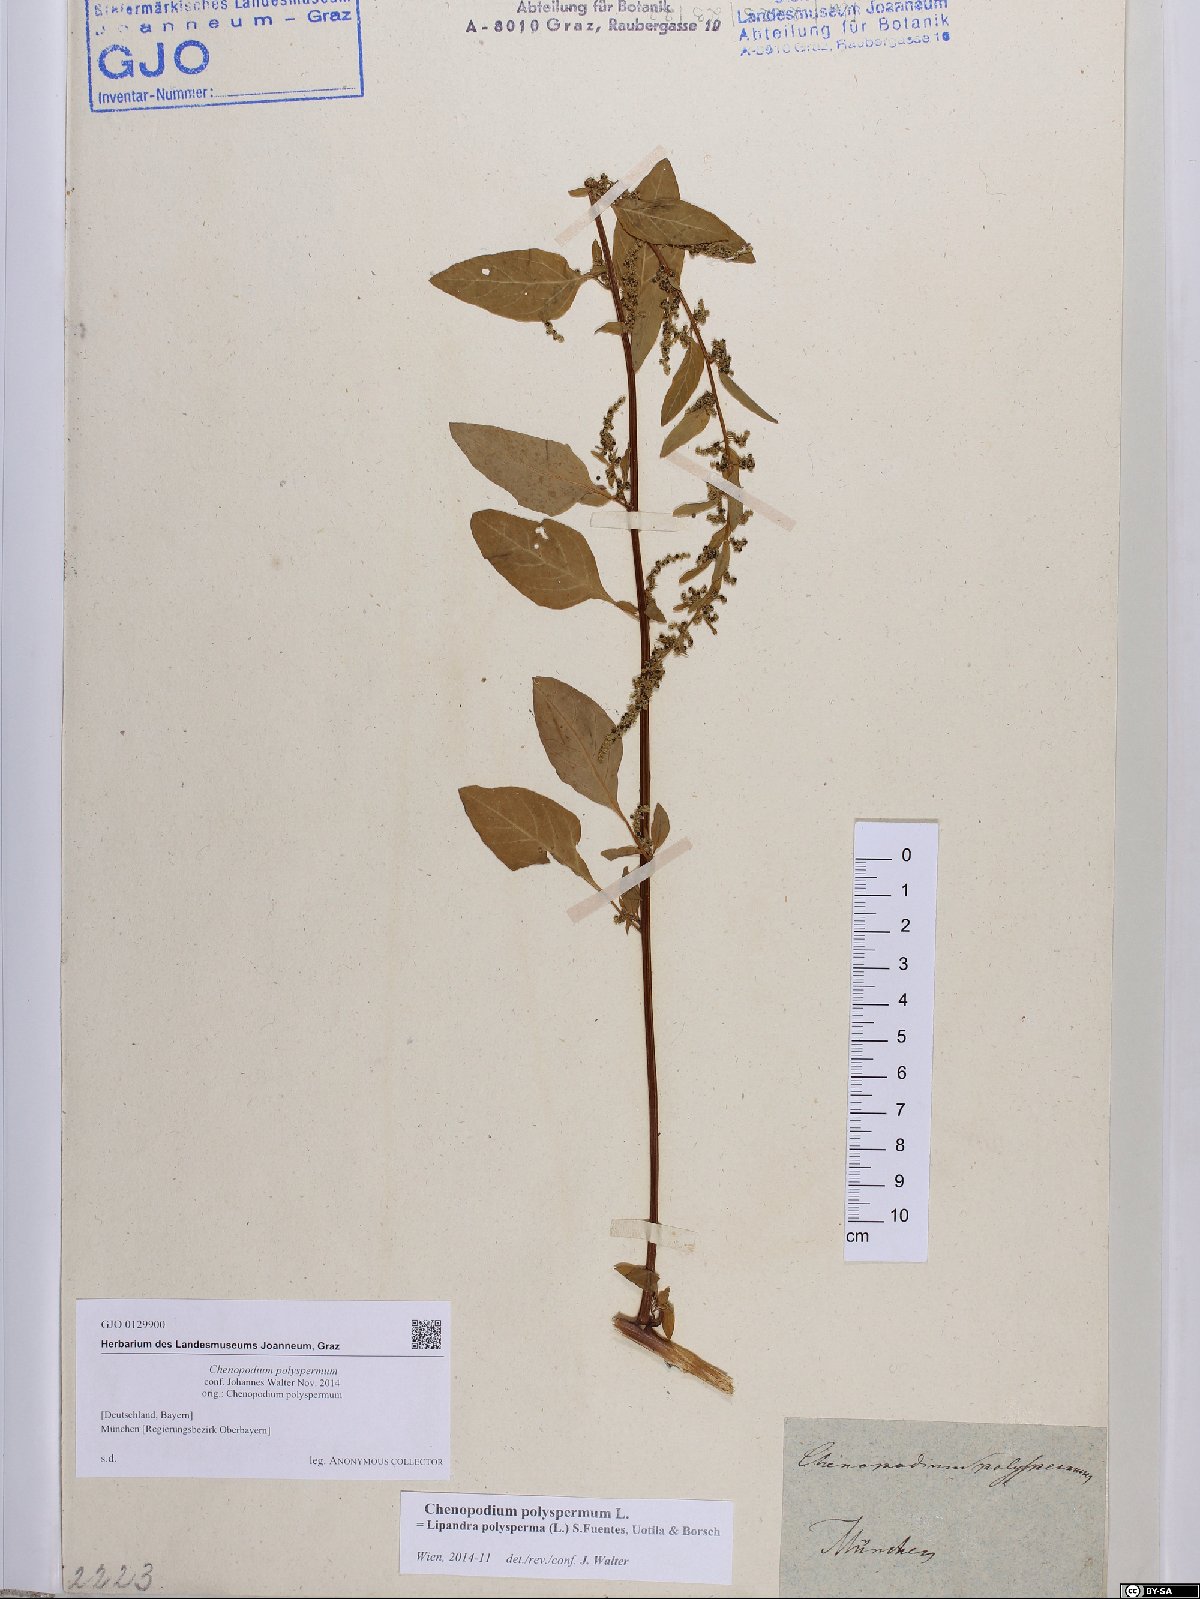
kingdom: Plantae
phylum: Tracheophyta
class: Magnoliopsida
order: Caryophyllales
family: Amaranthaceae
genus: Lipandra
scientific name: Lipandra polysperma
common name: Many-seed goosefoot
